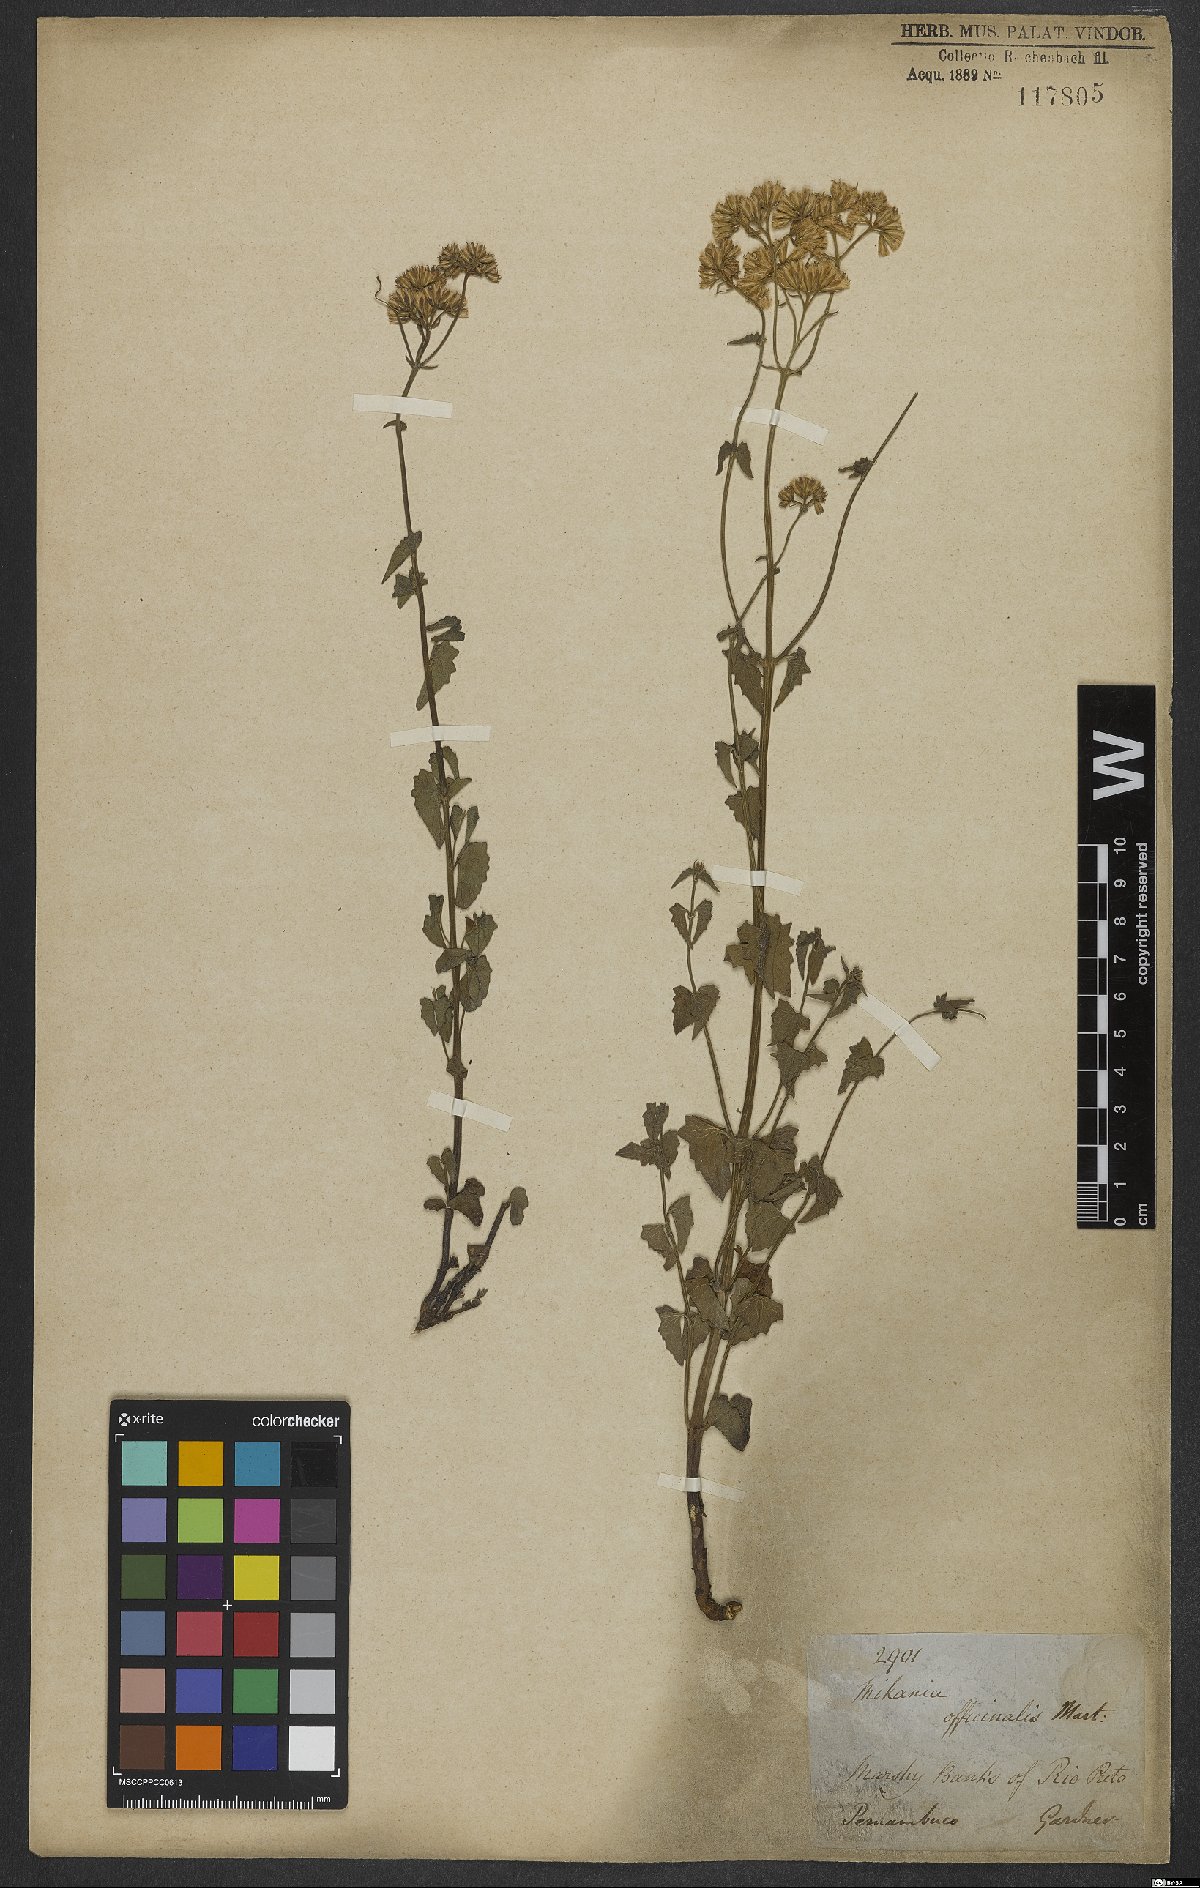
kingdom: Plantae
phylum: Tracheophyta
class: Magnoliopsida
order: Asterales
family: Asteraceae
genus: Mikania
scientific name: Mikania officinalis
